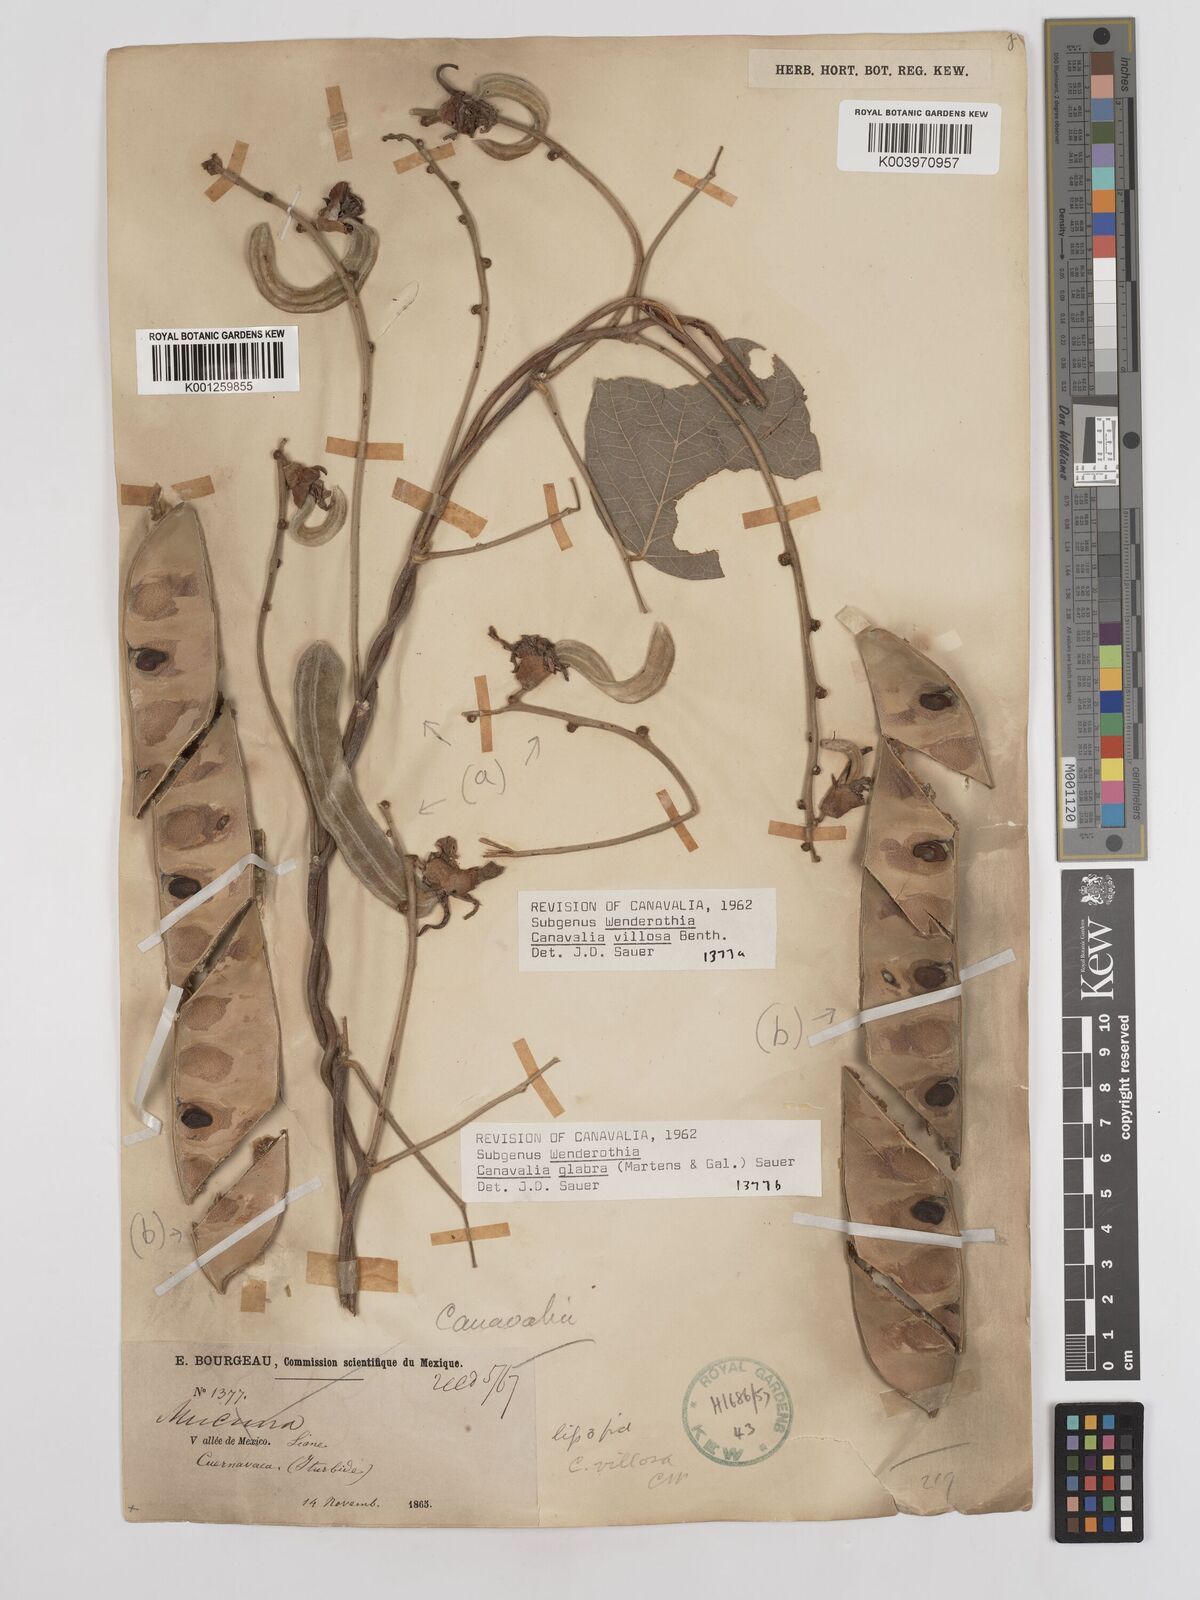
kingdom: Plantae
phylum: Tracheophyta
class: Magnoliopsida
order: Fabales
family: Fabaceae
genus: Canavalia
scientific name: Canavalia villosa
